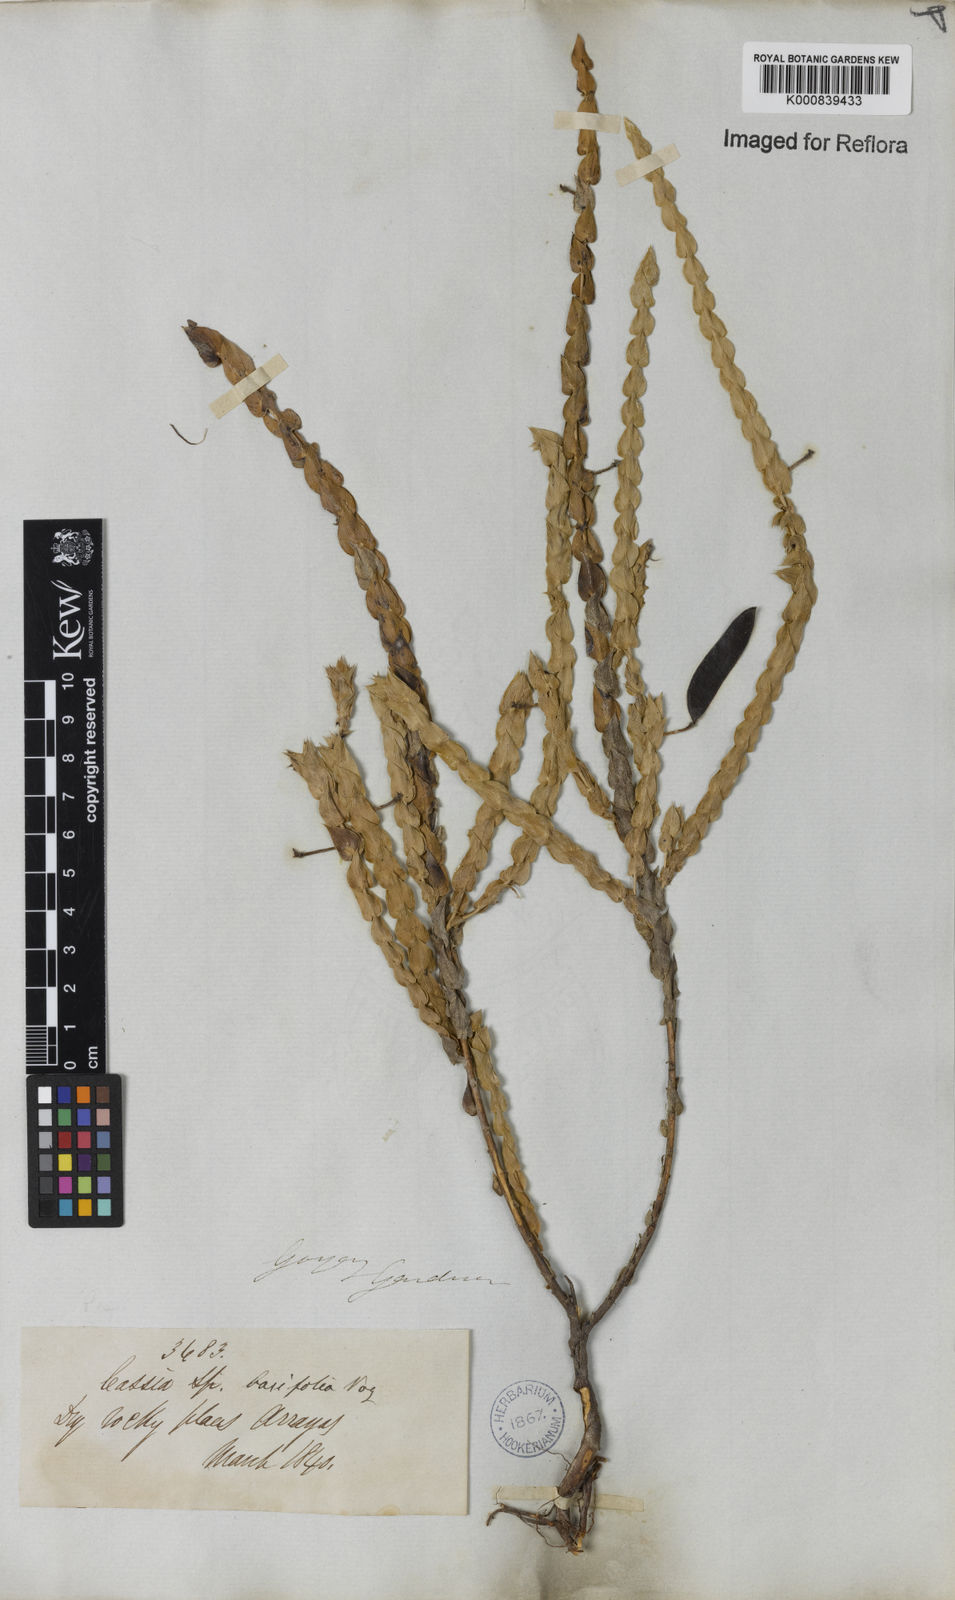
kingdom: Plantae
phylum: Tracheophyta
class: Magnoliopsida
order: Fabales
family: Fabaceae
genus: Chamaecrista
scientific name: Chamaecrista basifolia
